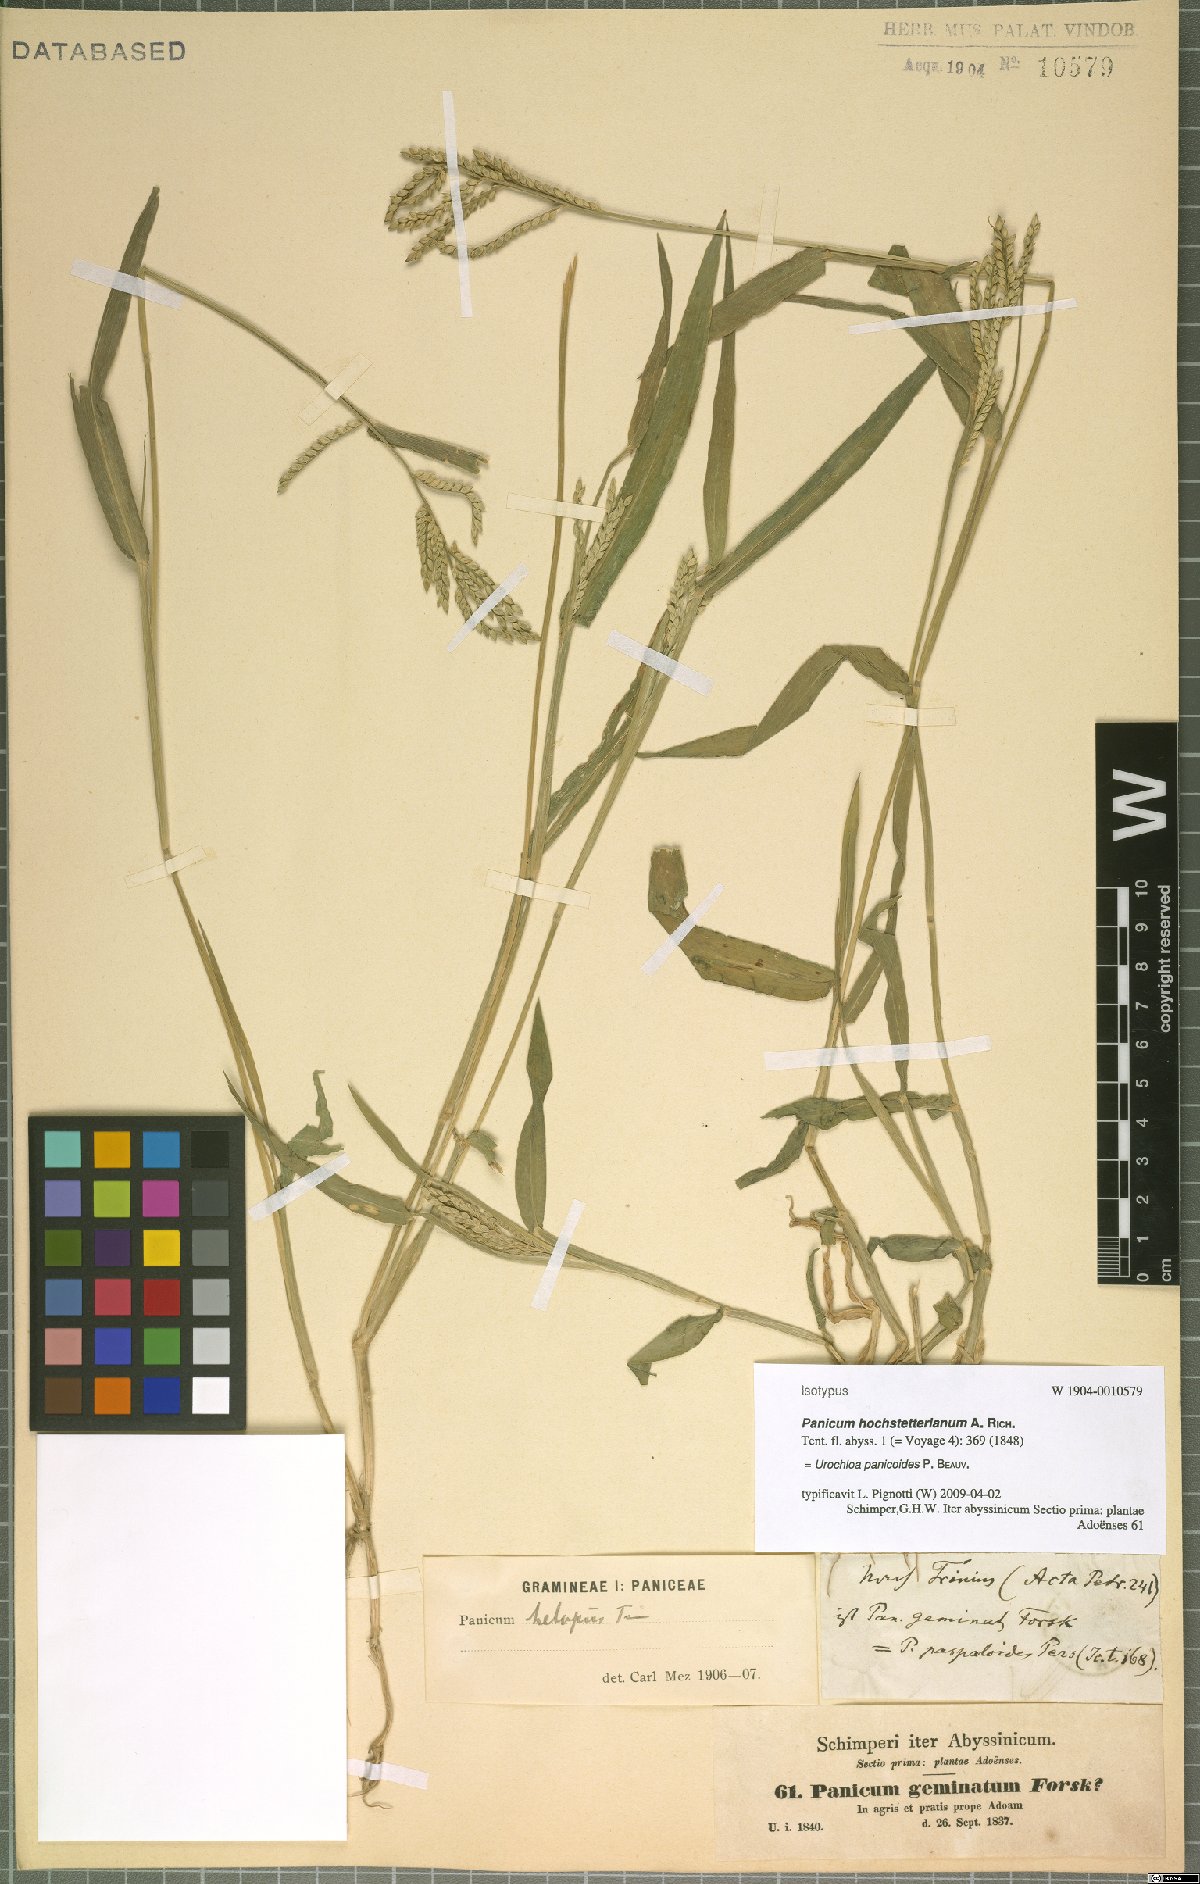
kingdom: Plantae
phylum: Tracheophyta
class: Liliopsida
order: Poales
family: Poaceae
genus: Urochloa
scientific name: Urochloa panicoides
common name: Sharp-flowered signal-grass
